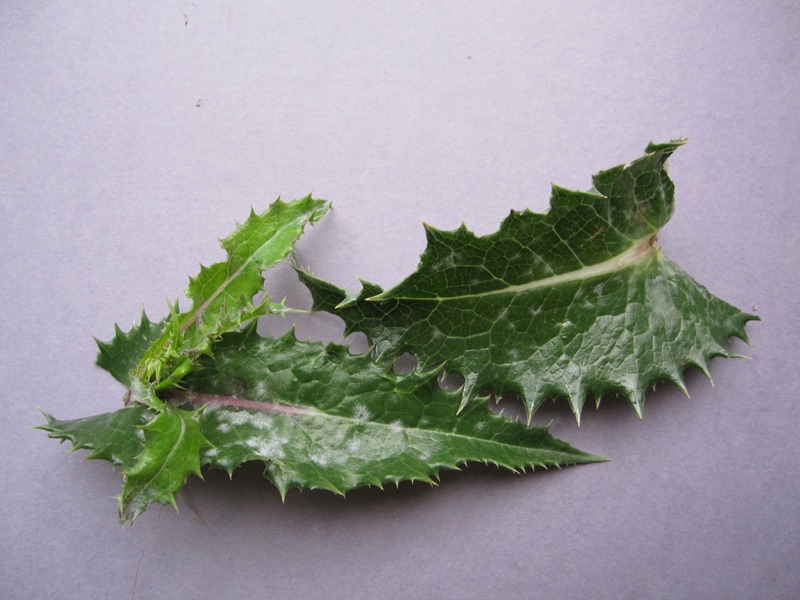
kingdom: Fungi
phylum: Ascomycota
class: Leotiomycetes
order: Helotiales
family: Erysiphaceae
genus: Golovinomyces
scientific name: Golovinomyces cichoracearum
